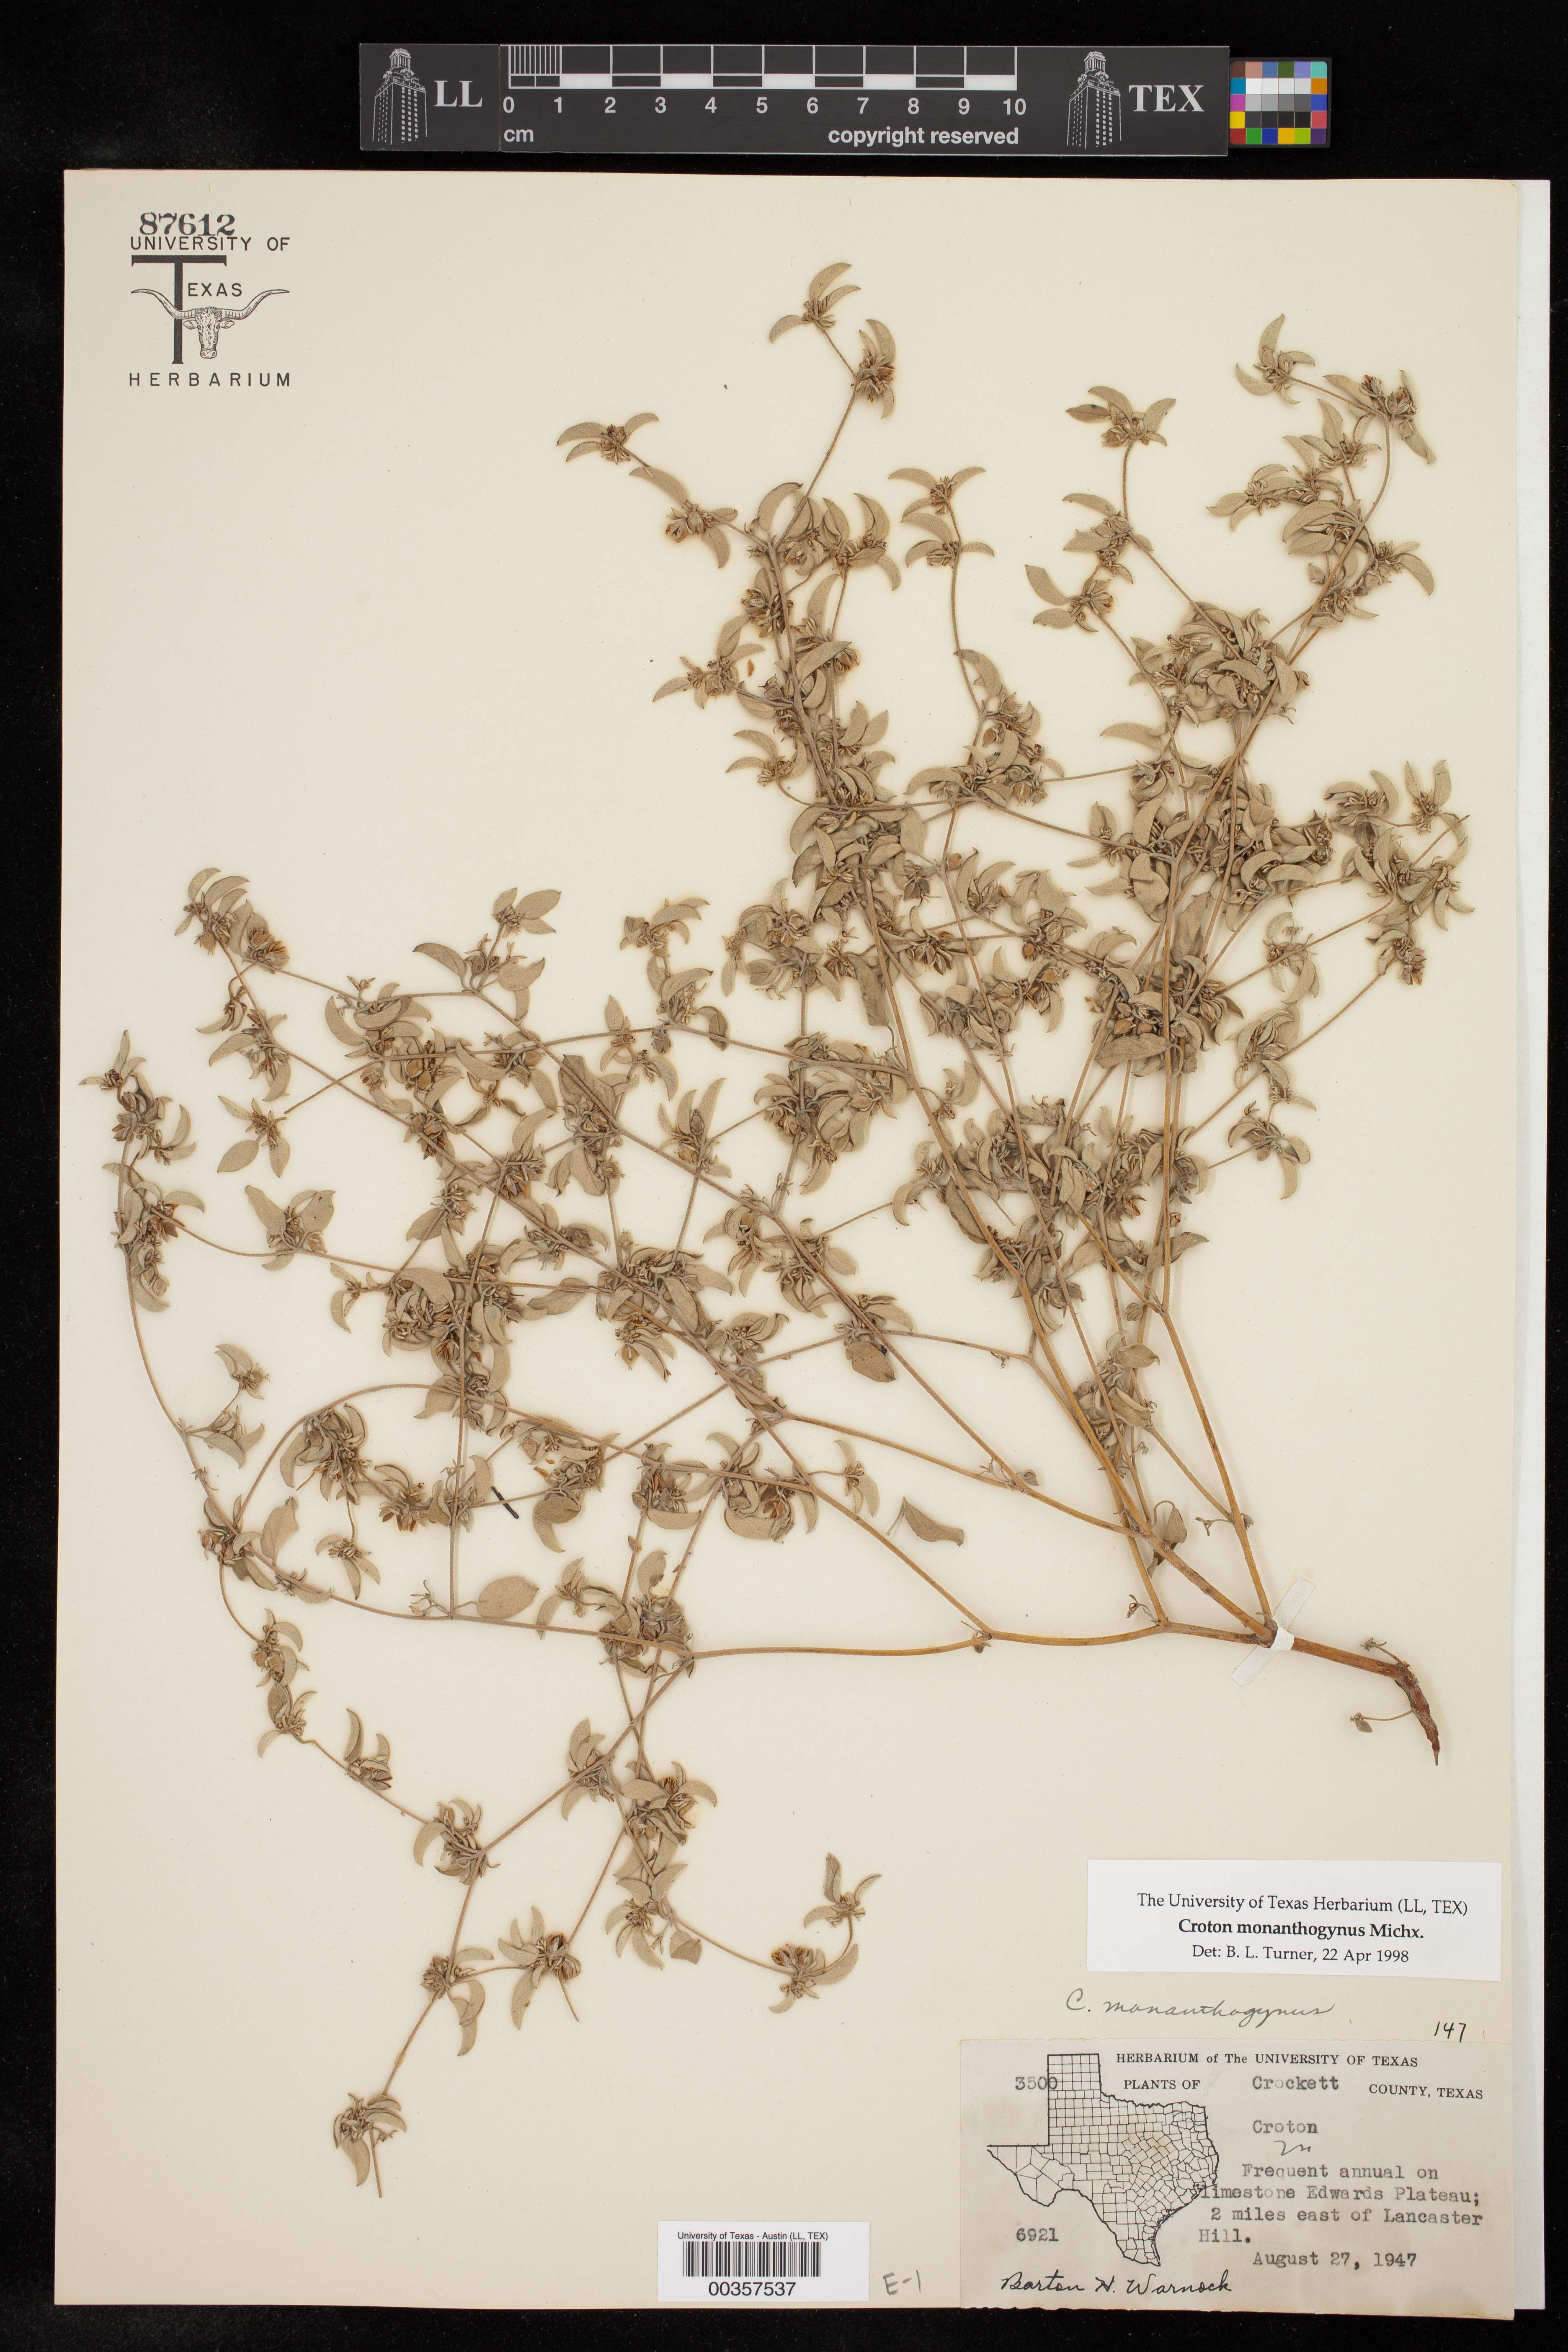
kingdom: Plantae
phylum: Tracheophyta
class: Magnoliopsida
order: Malpighiales
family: Euphorbiaceae
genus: Croton
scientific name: Croton monanthogynus
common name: One-seed croton
